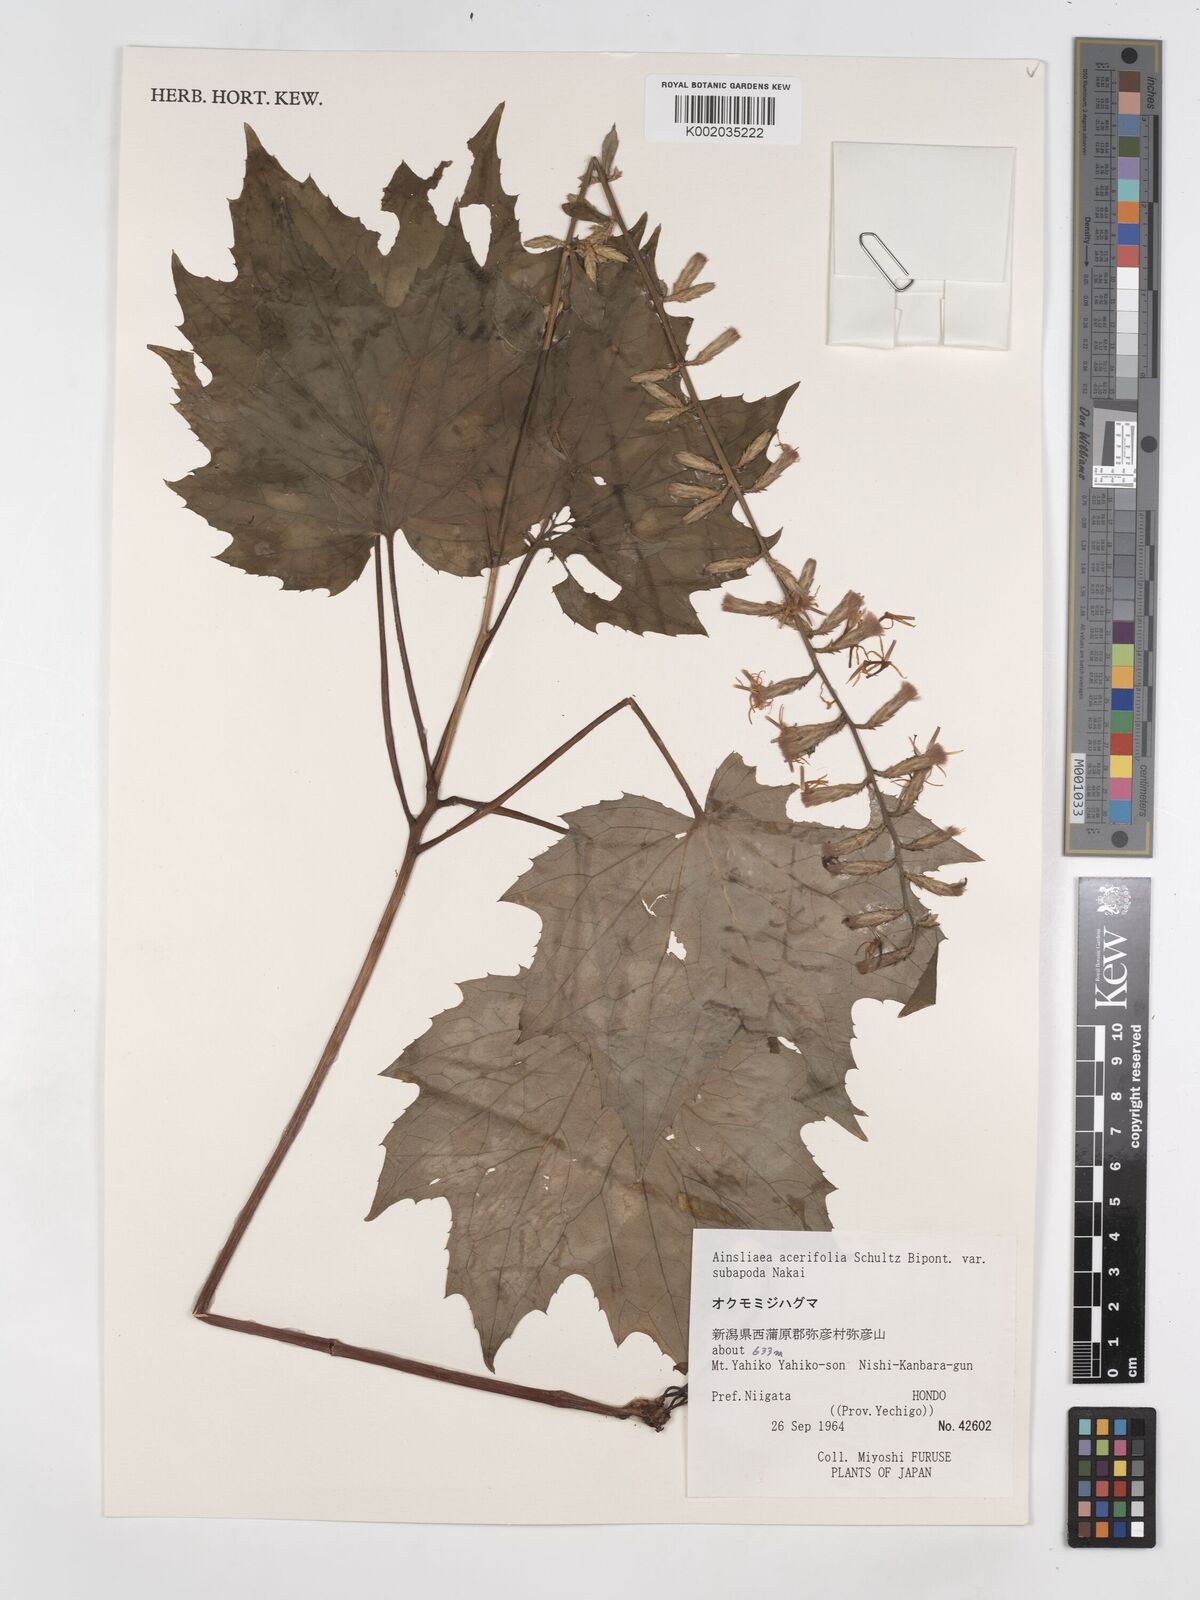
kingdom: Plantae
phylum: Tracheophyta
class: Magnoliopsida
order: Asterales
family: Asteraceae
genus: Ainsliaea
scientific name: Ainsliaea acerifolia
